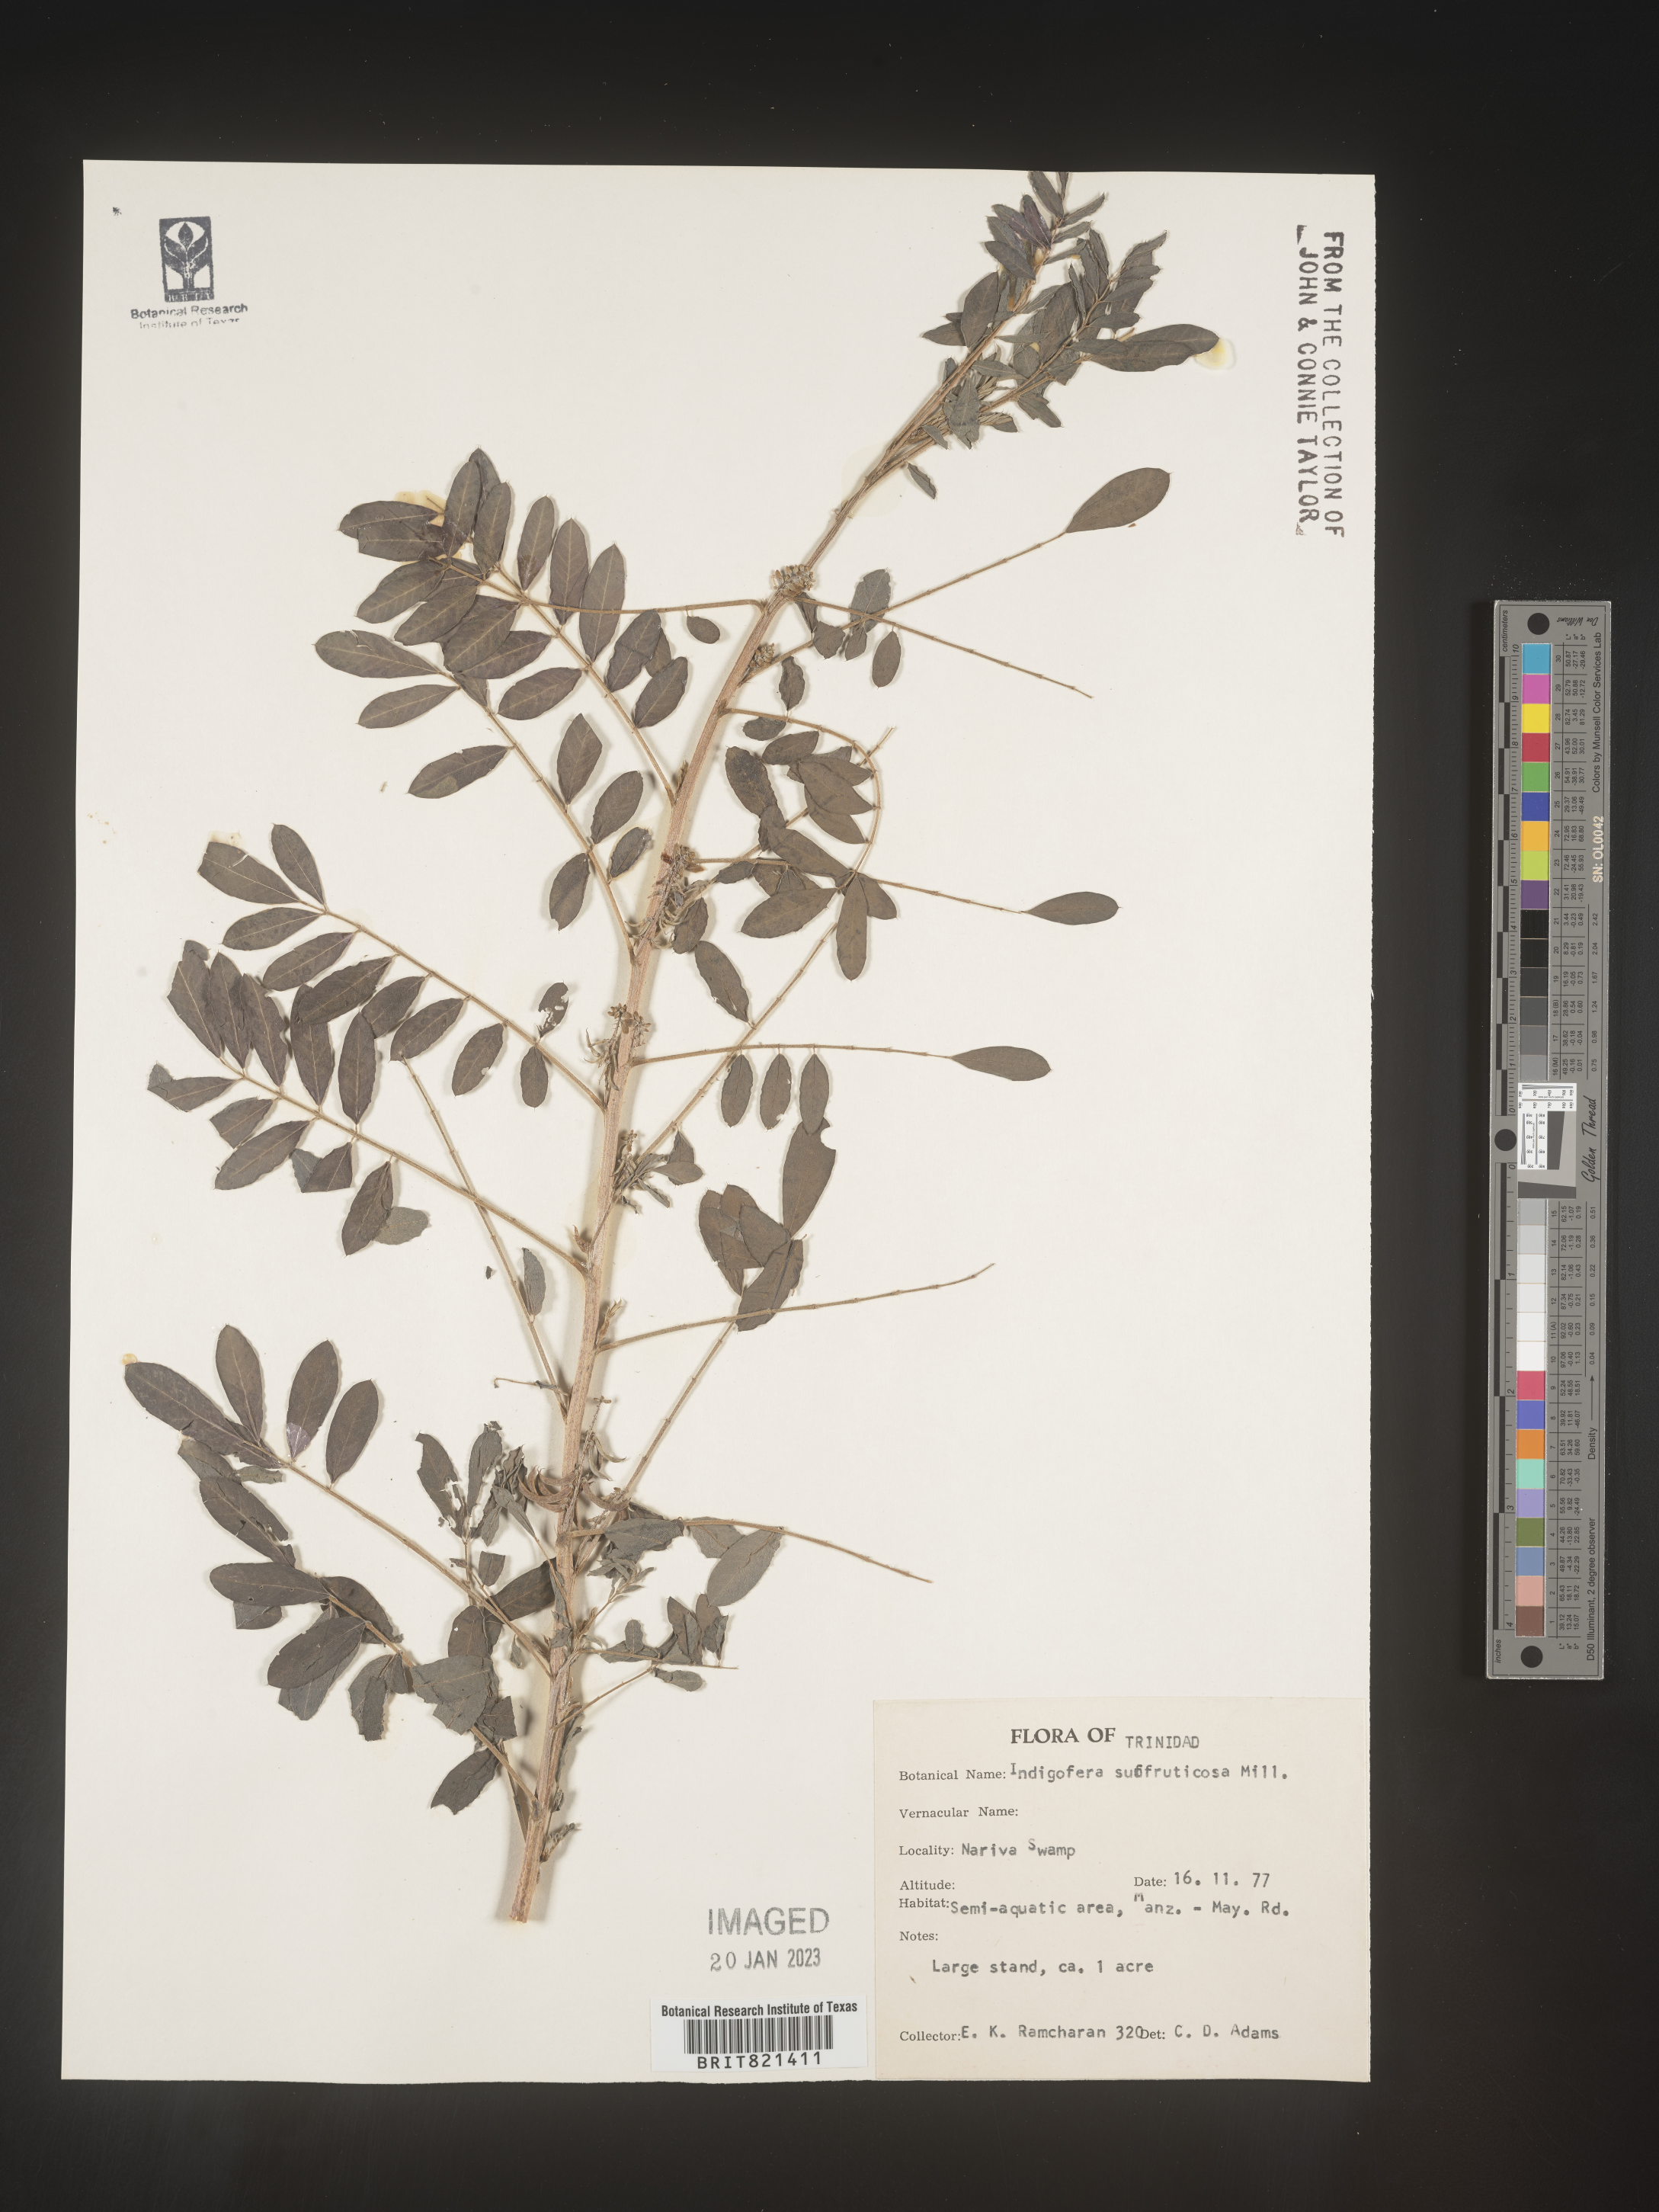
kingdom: Plantae
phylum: Tracheophyta
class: Magnoliopsida
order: Fabales
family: Fabaceae
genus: Indigofera
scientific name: Indigofera
